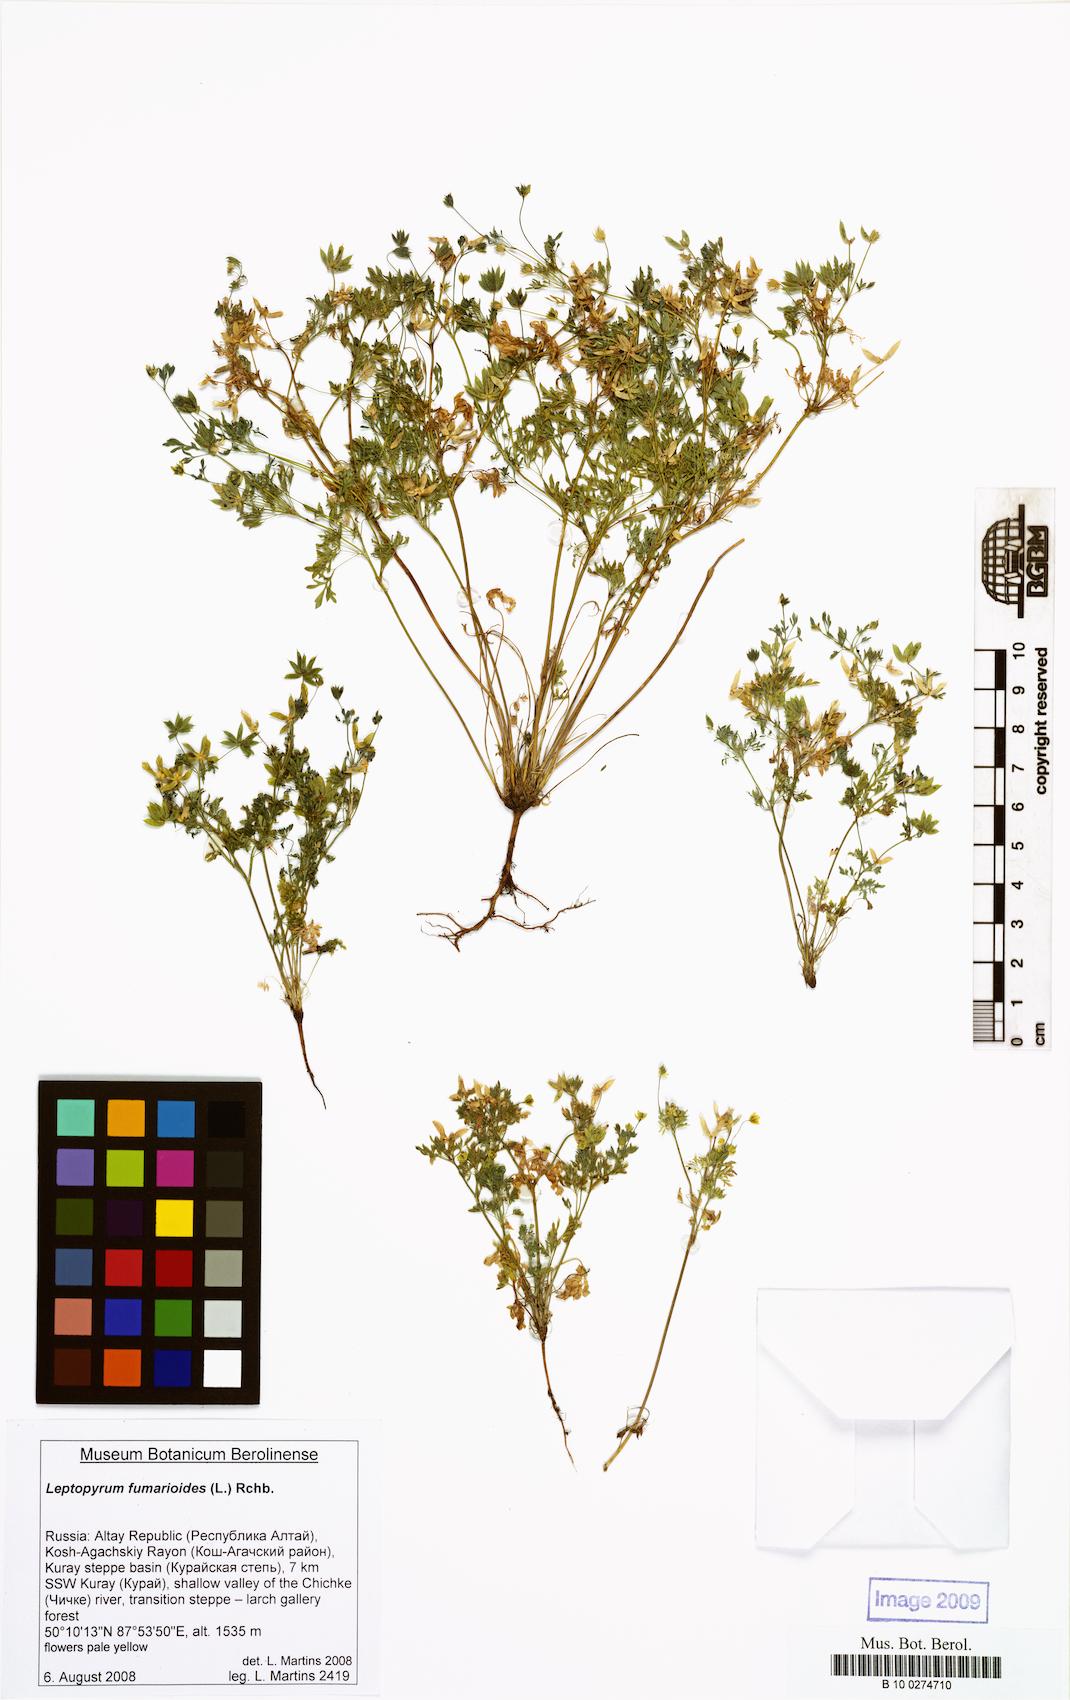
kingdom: Plantae
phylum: Tracheophyta
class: Magnoliopsida
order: Ranunculales
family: Ranunculaceae
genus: Leptopyrum
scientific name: Leptopyrum fumarioides
